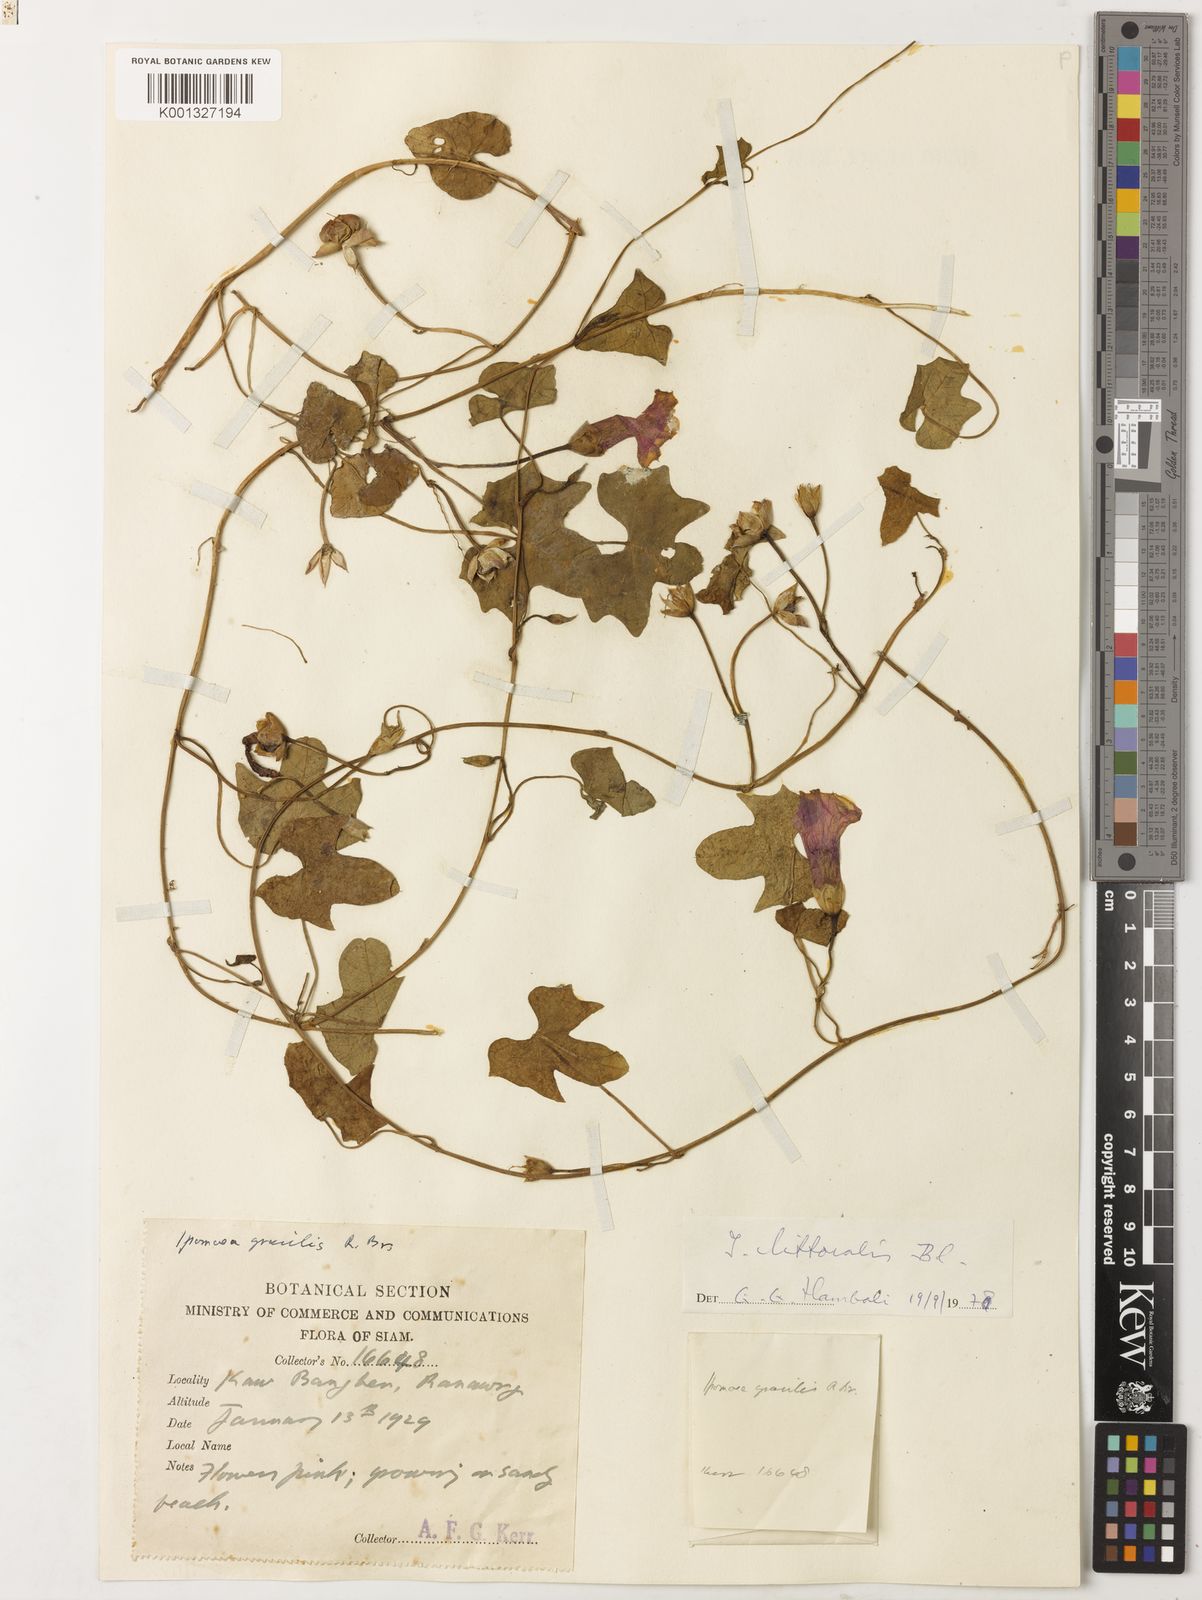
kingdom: Plantae
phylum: Tracheophyta
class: Magnoliopsida
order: Solanales
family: Convolvulaceae
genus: Ipomoea
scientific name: Ipomoea littoralis
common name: Coastal morning glory
